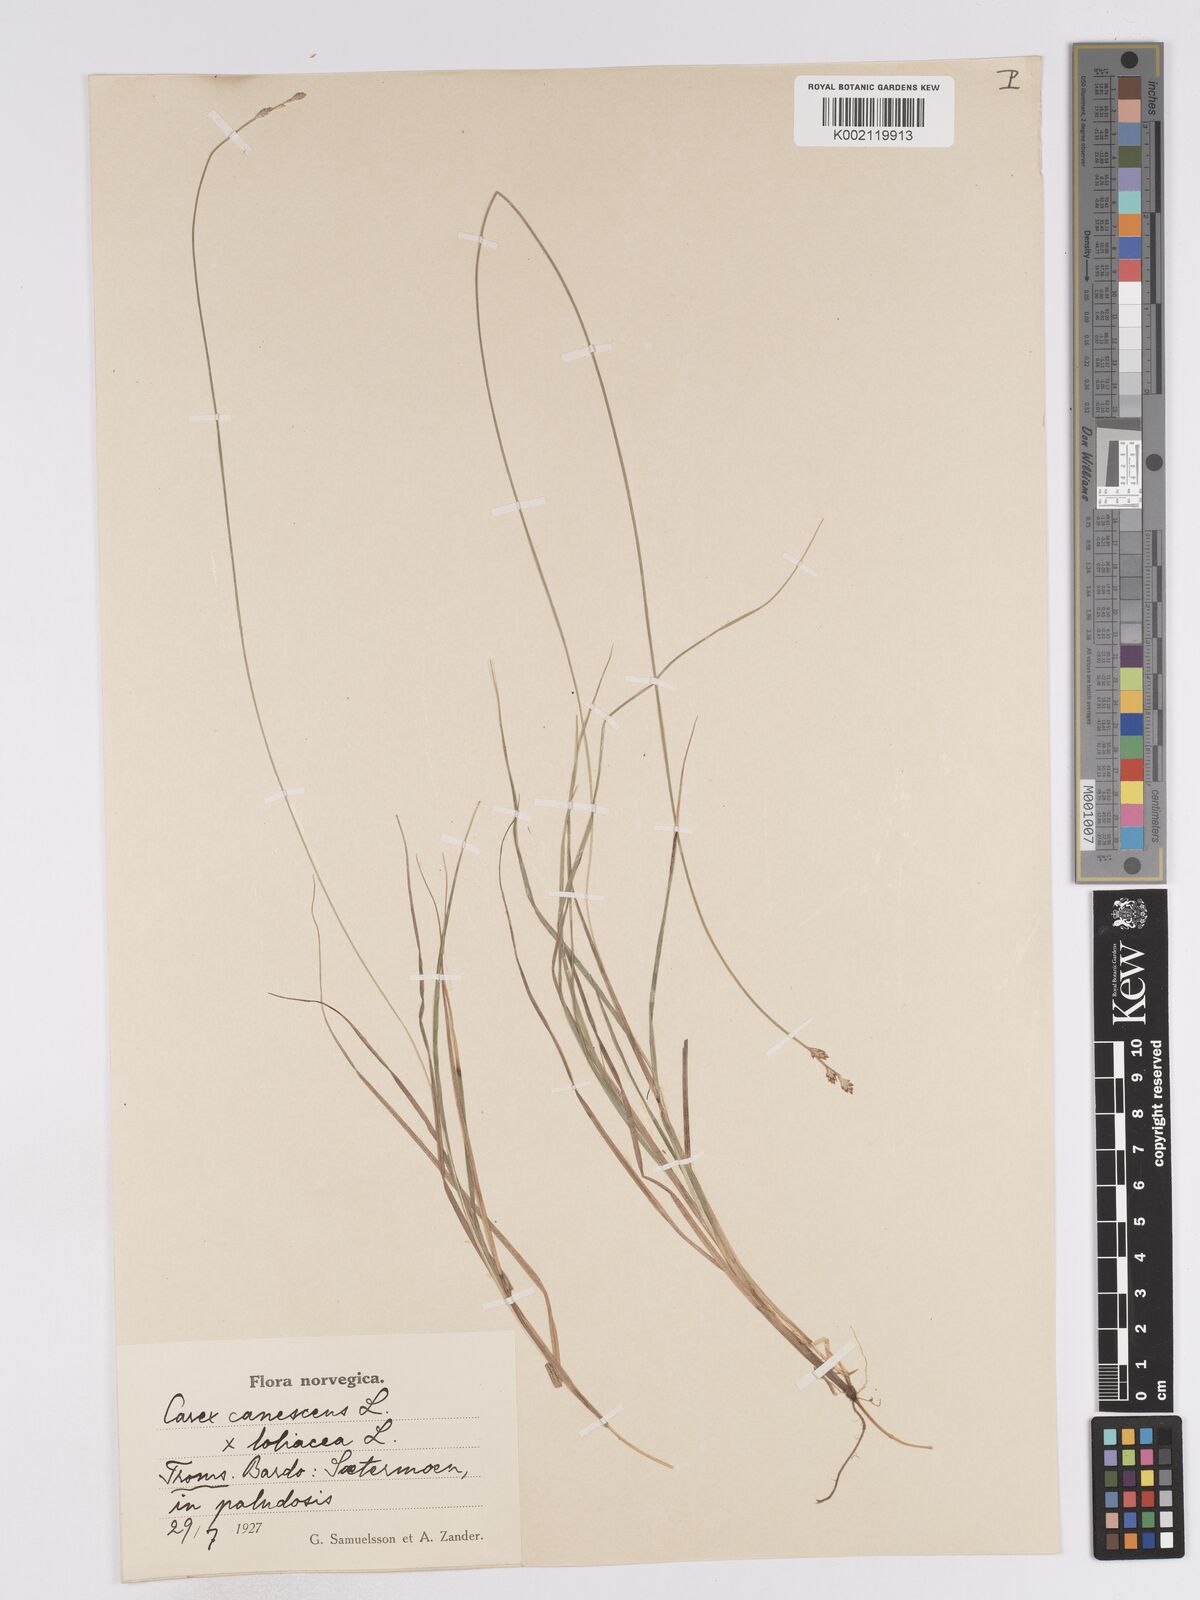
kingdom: Plantae
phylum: Tracheophyta
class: Liliopsida
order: Poales
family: Cyperaceae
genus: Carex
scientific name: Carex curta
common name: White sedge
